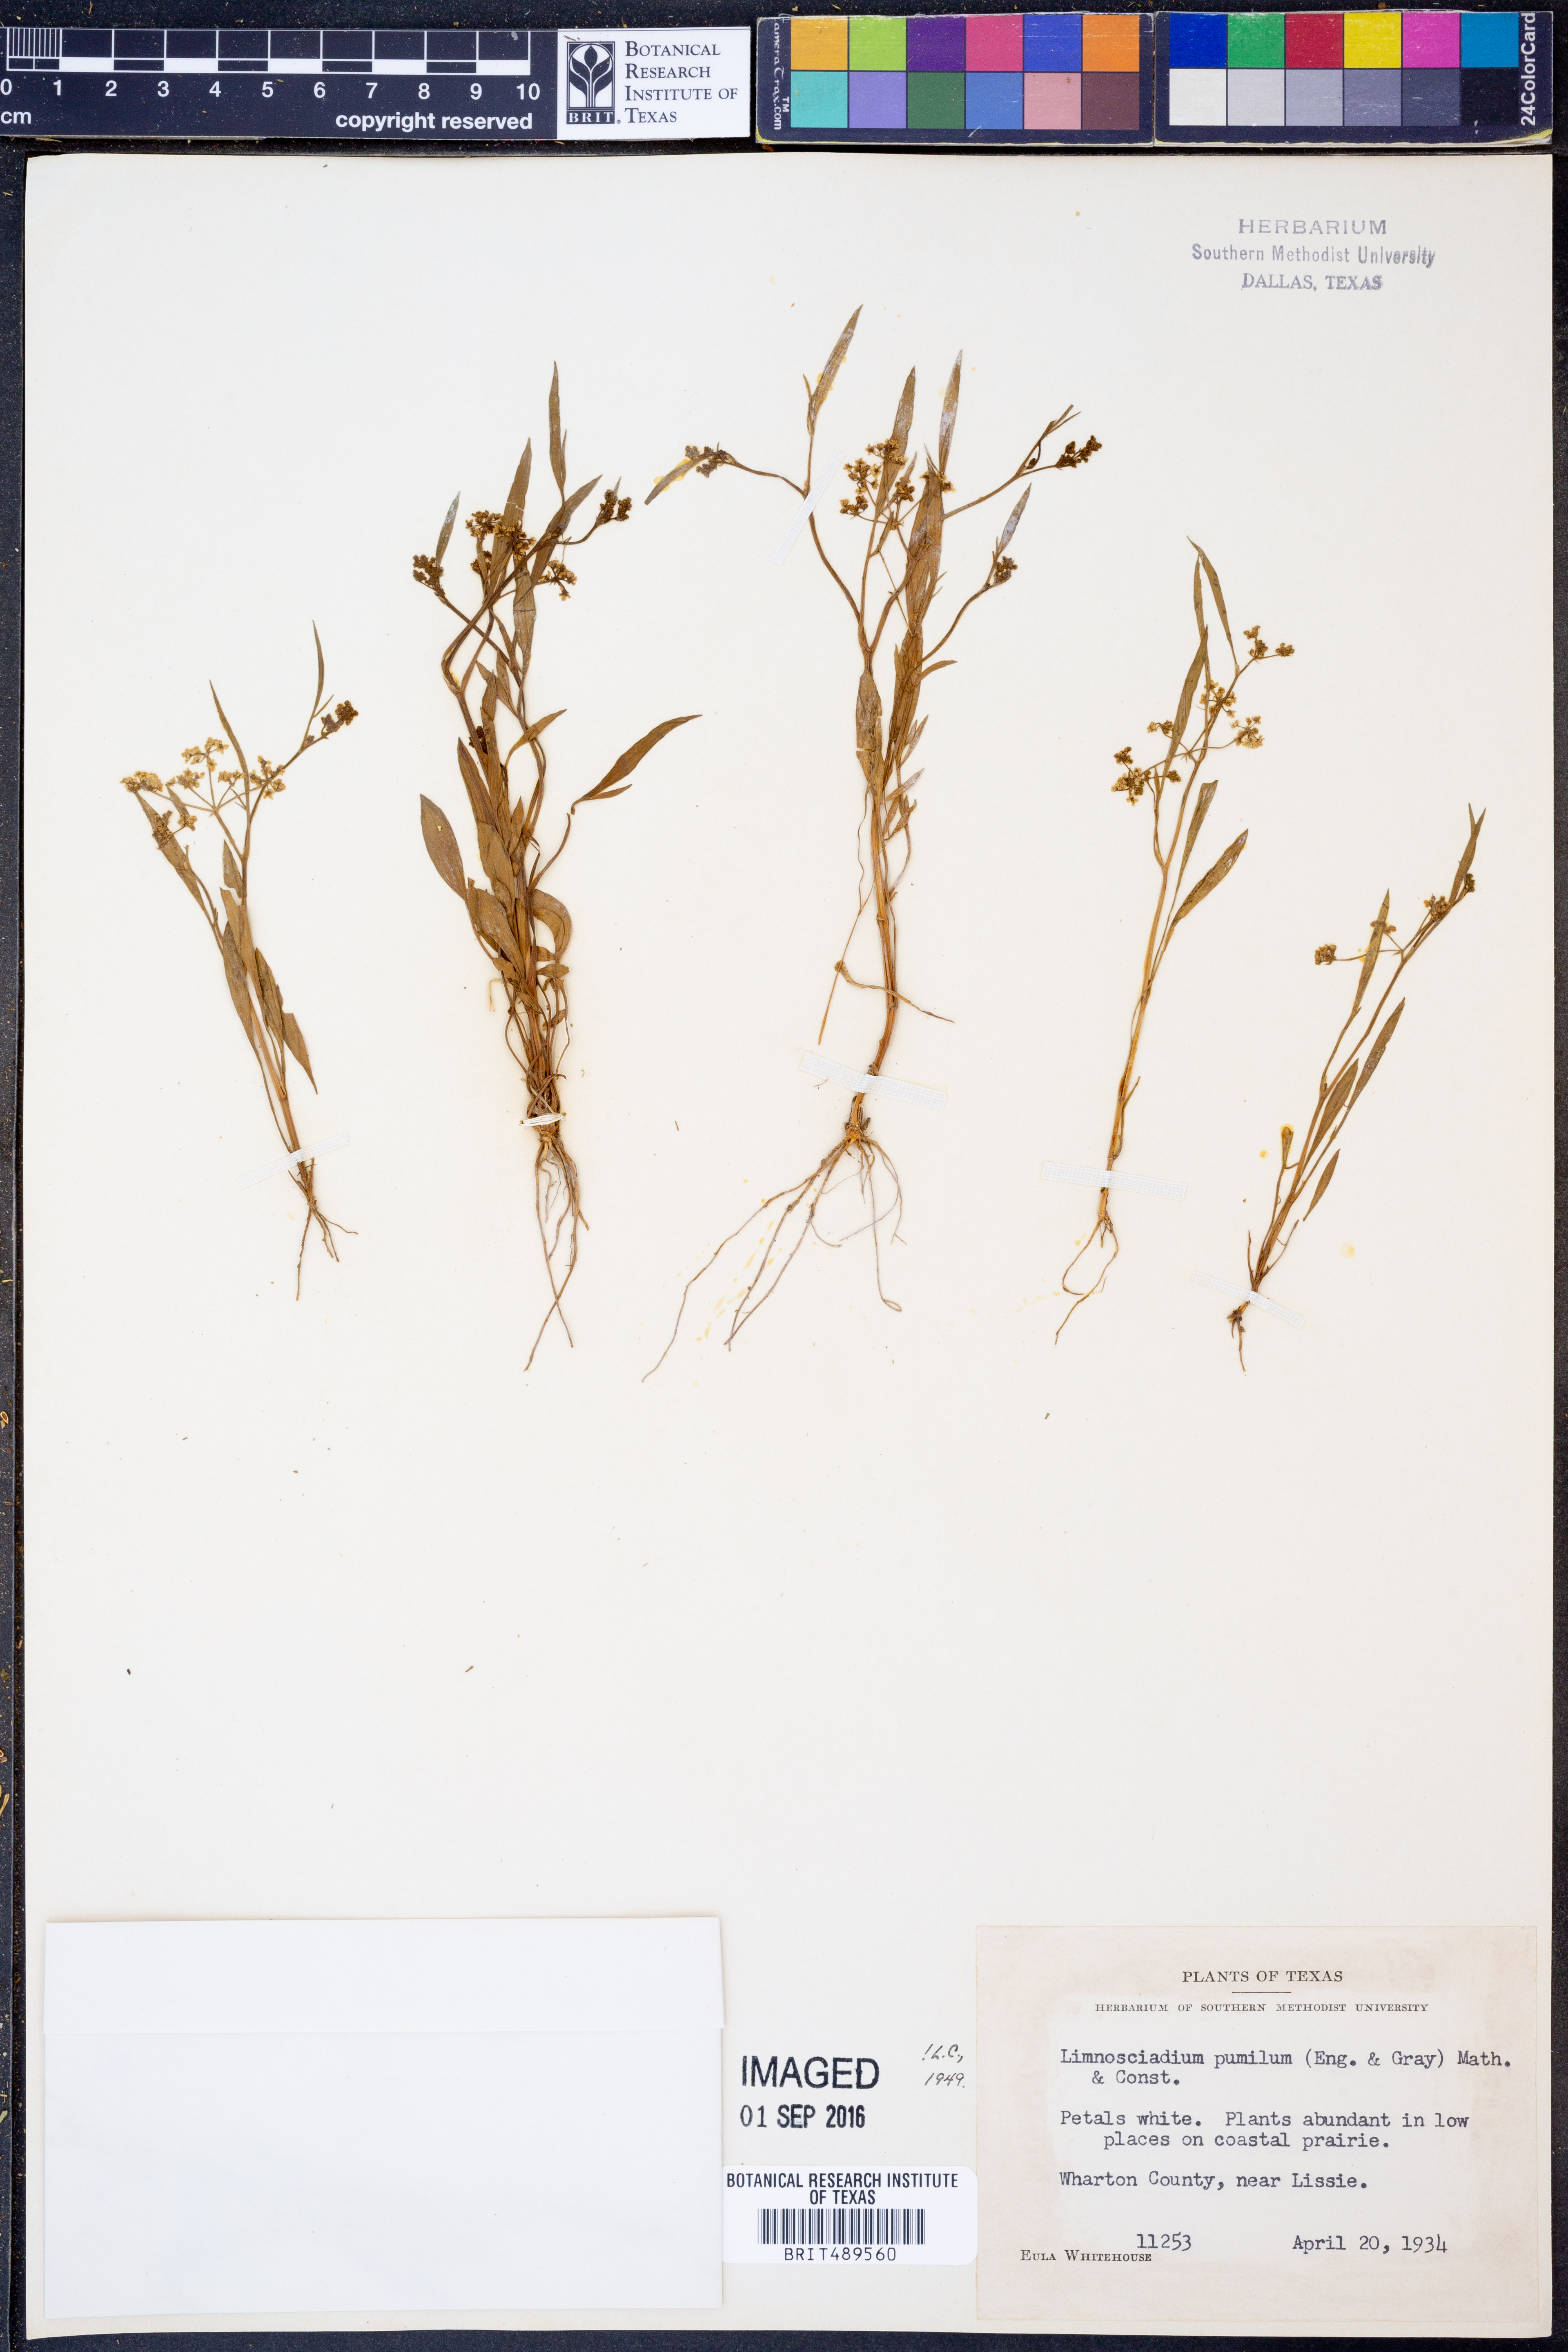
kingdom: Plantae
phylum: Tracheophyta
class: Magnoliopsida
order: Apiales
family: Apiaceae
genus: Limnosciadium
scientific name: Limnosciadium pinnatum
